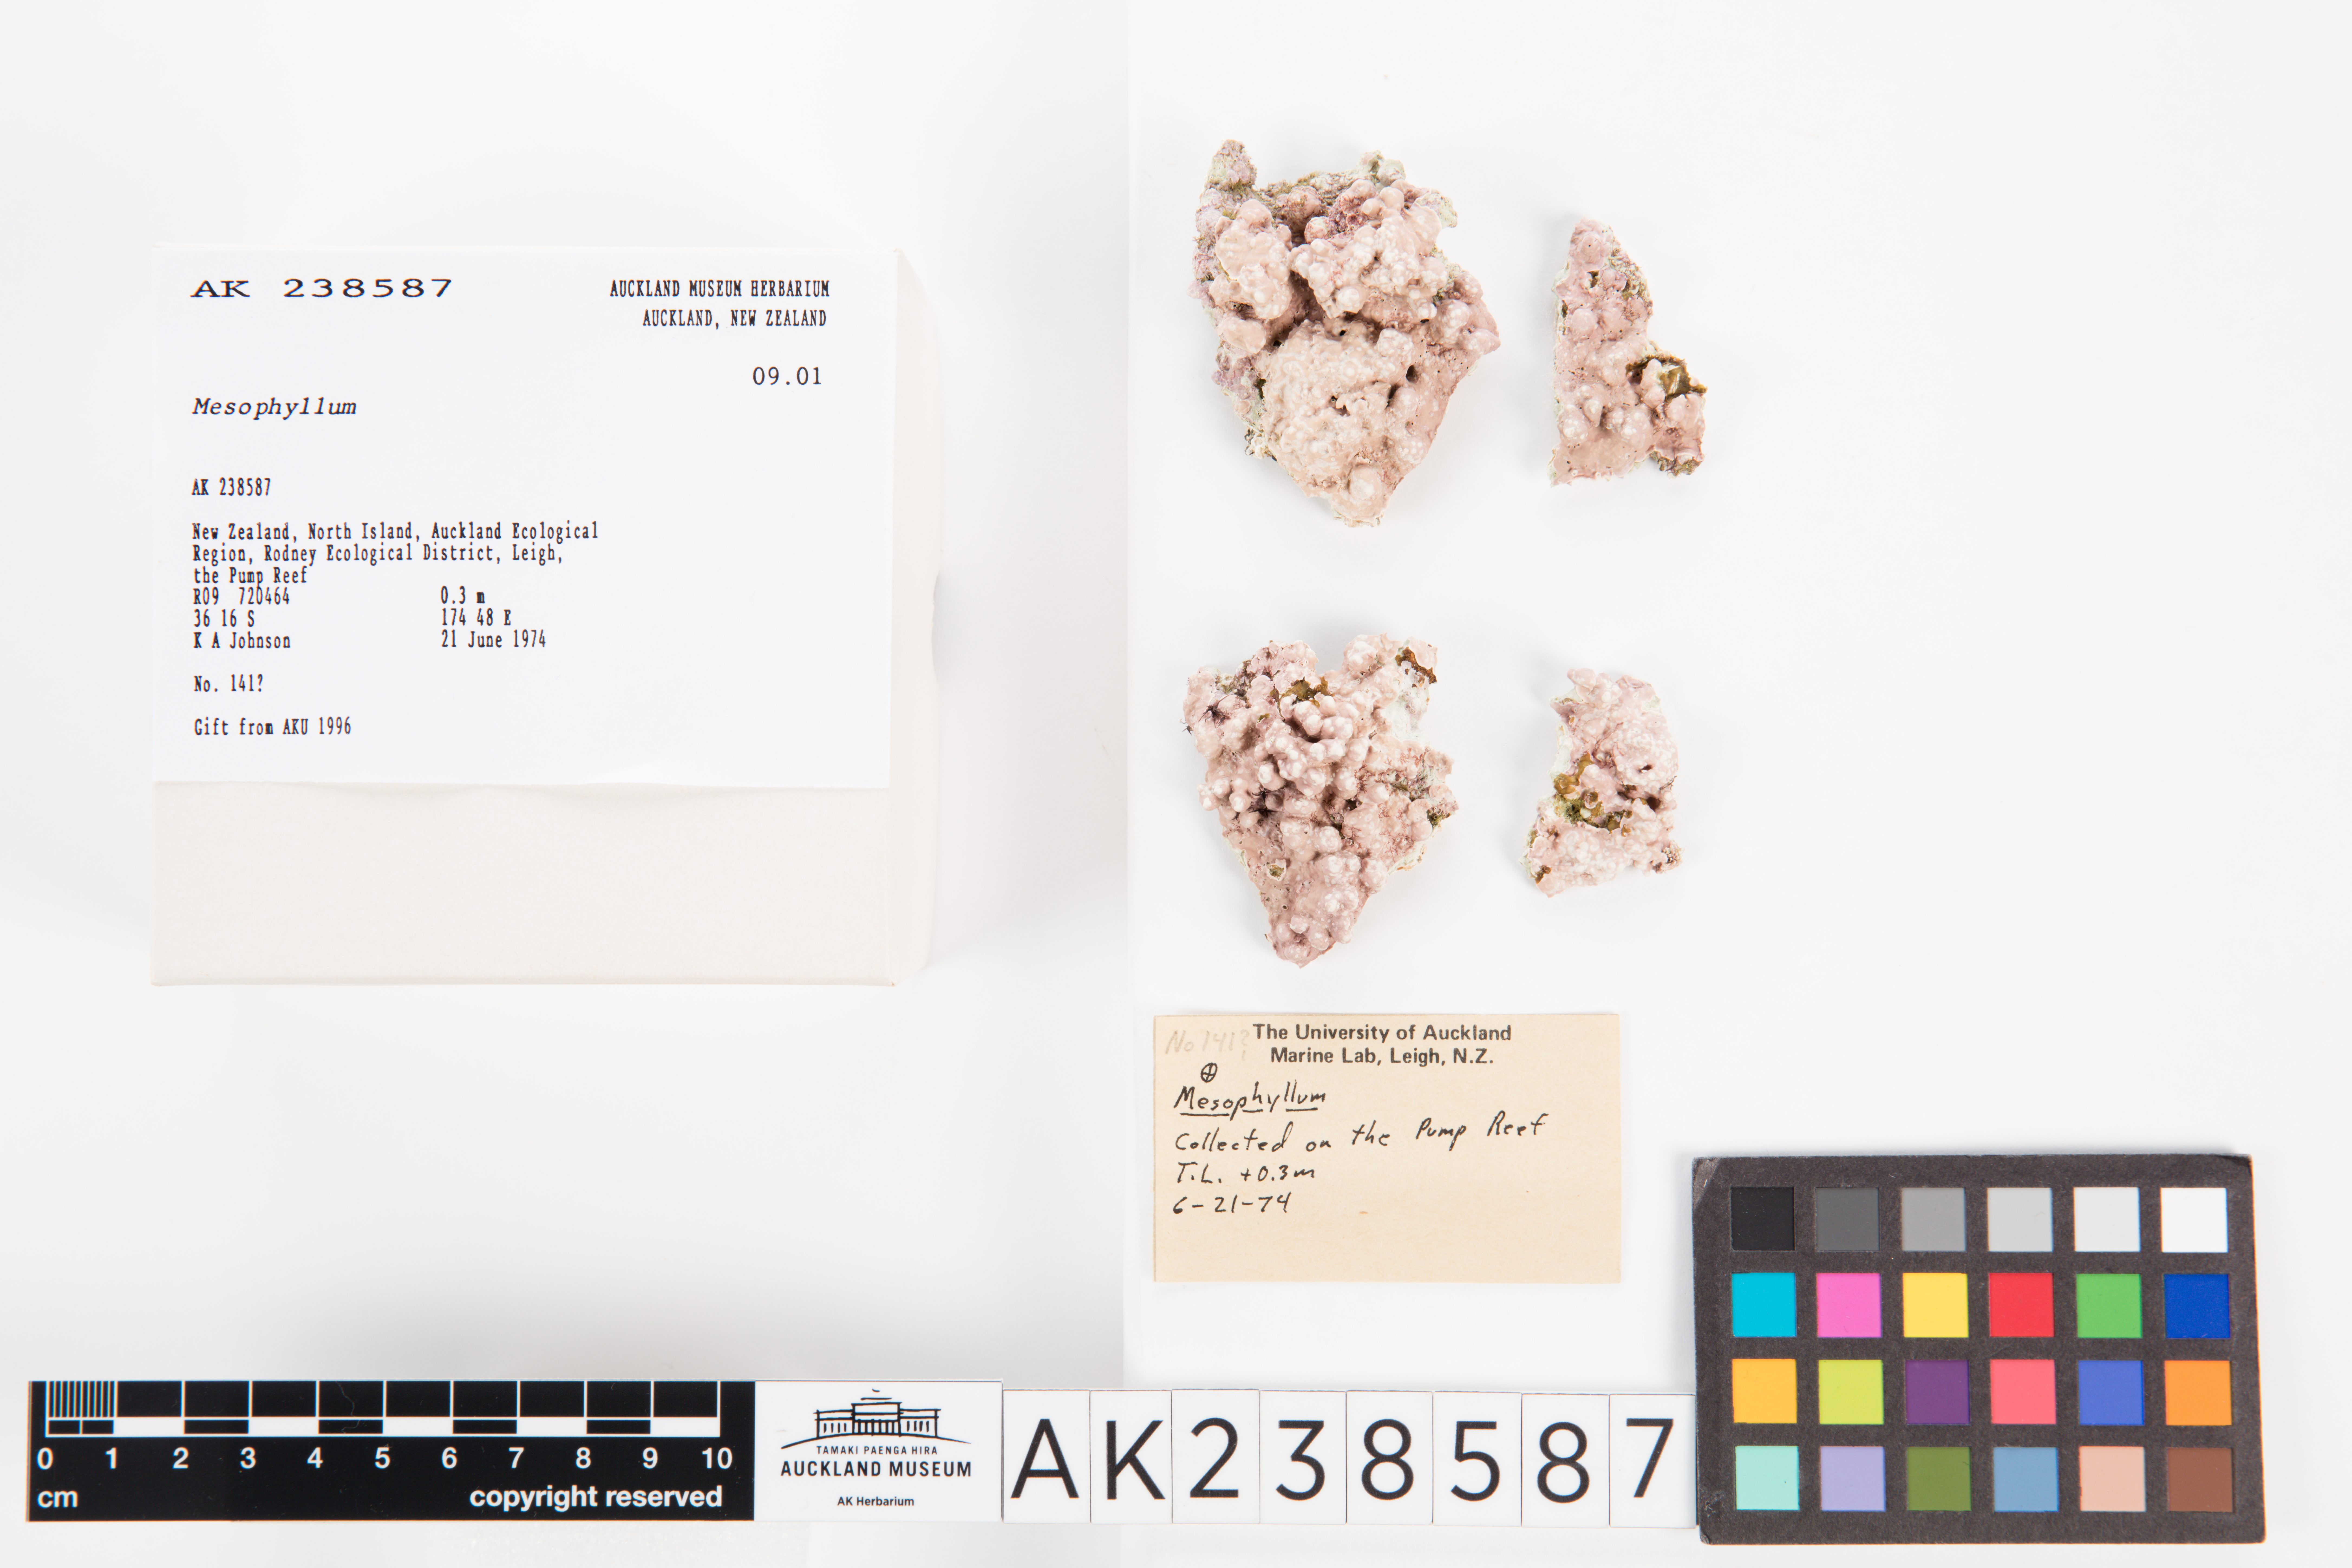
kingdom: Plantae
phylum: Rhodophyta
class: Florideophyceae
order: Corallinales
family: Mesophyllumaceae
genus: Mesophyllum
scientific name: Mesophyllum
